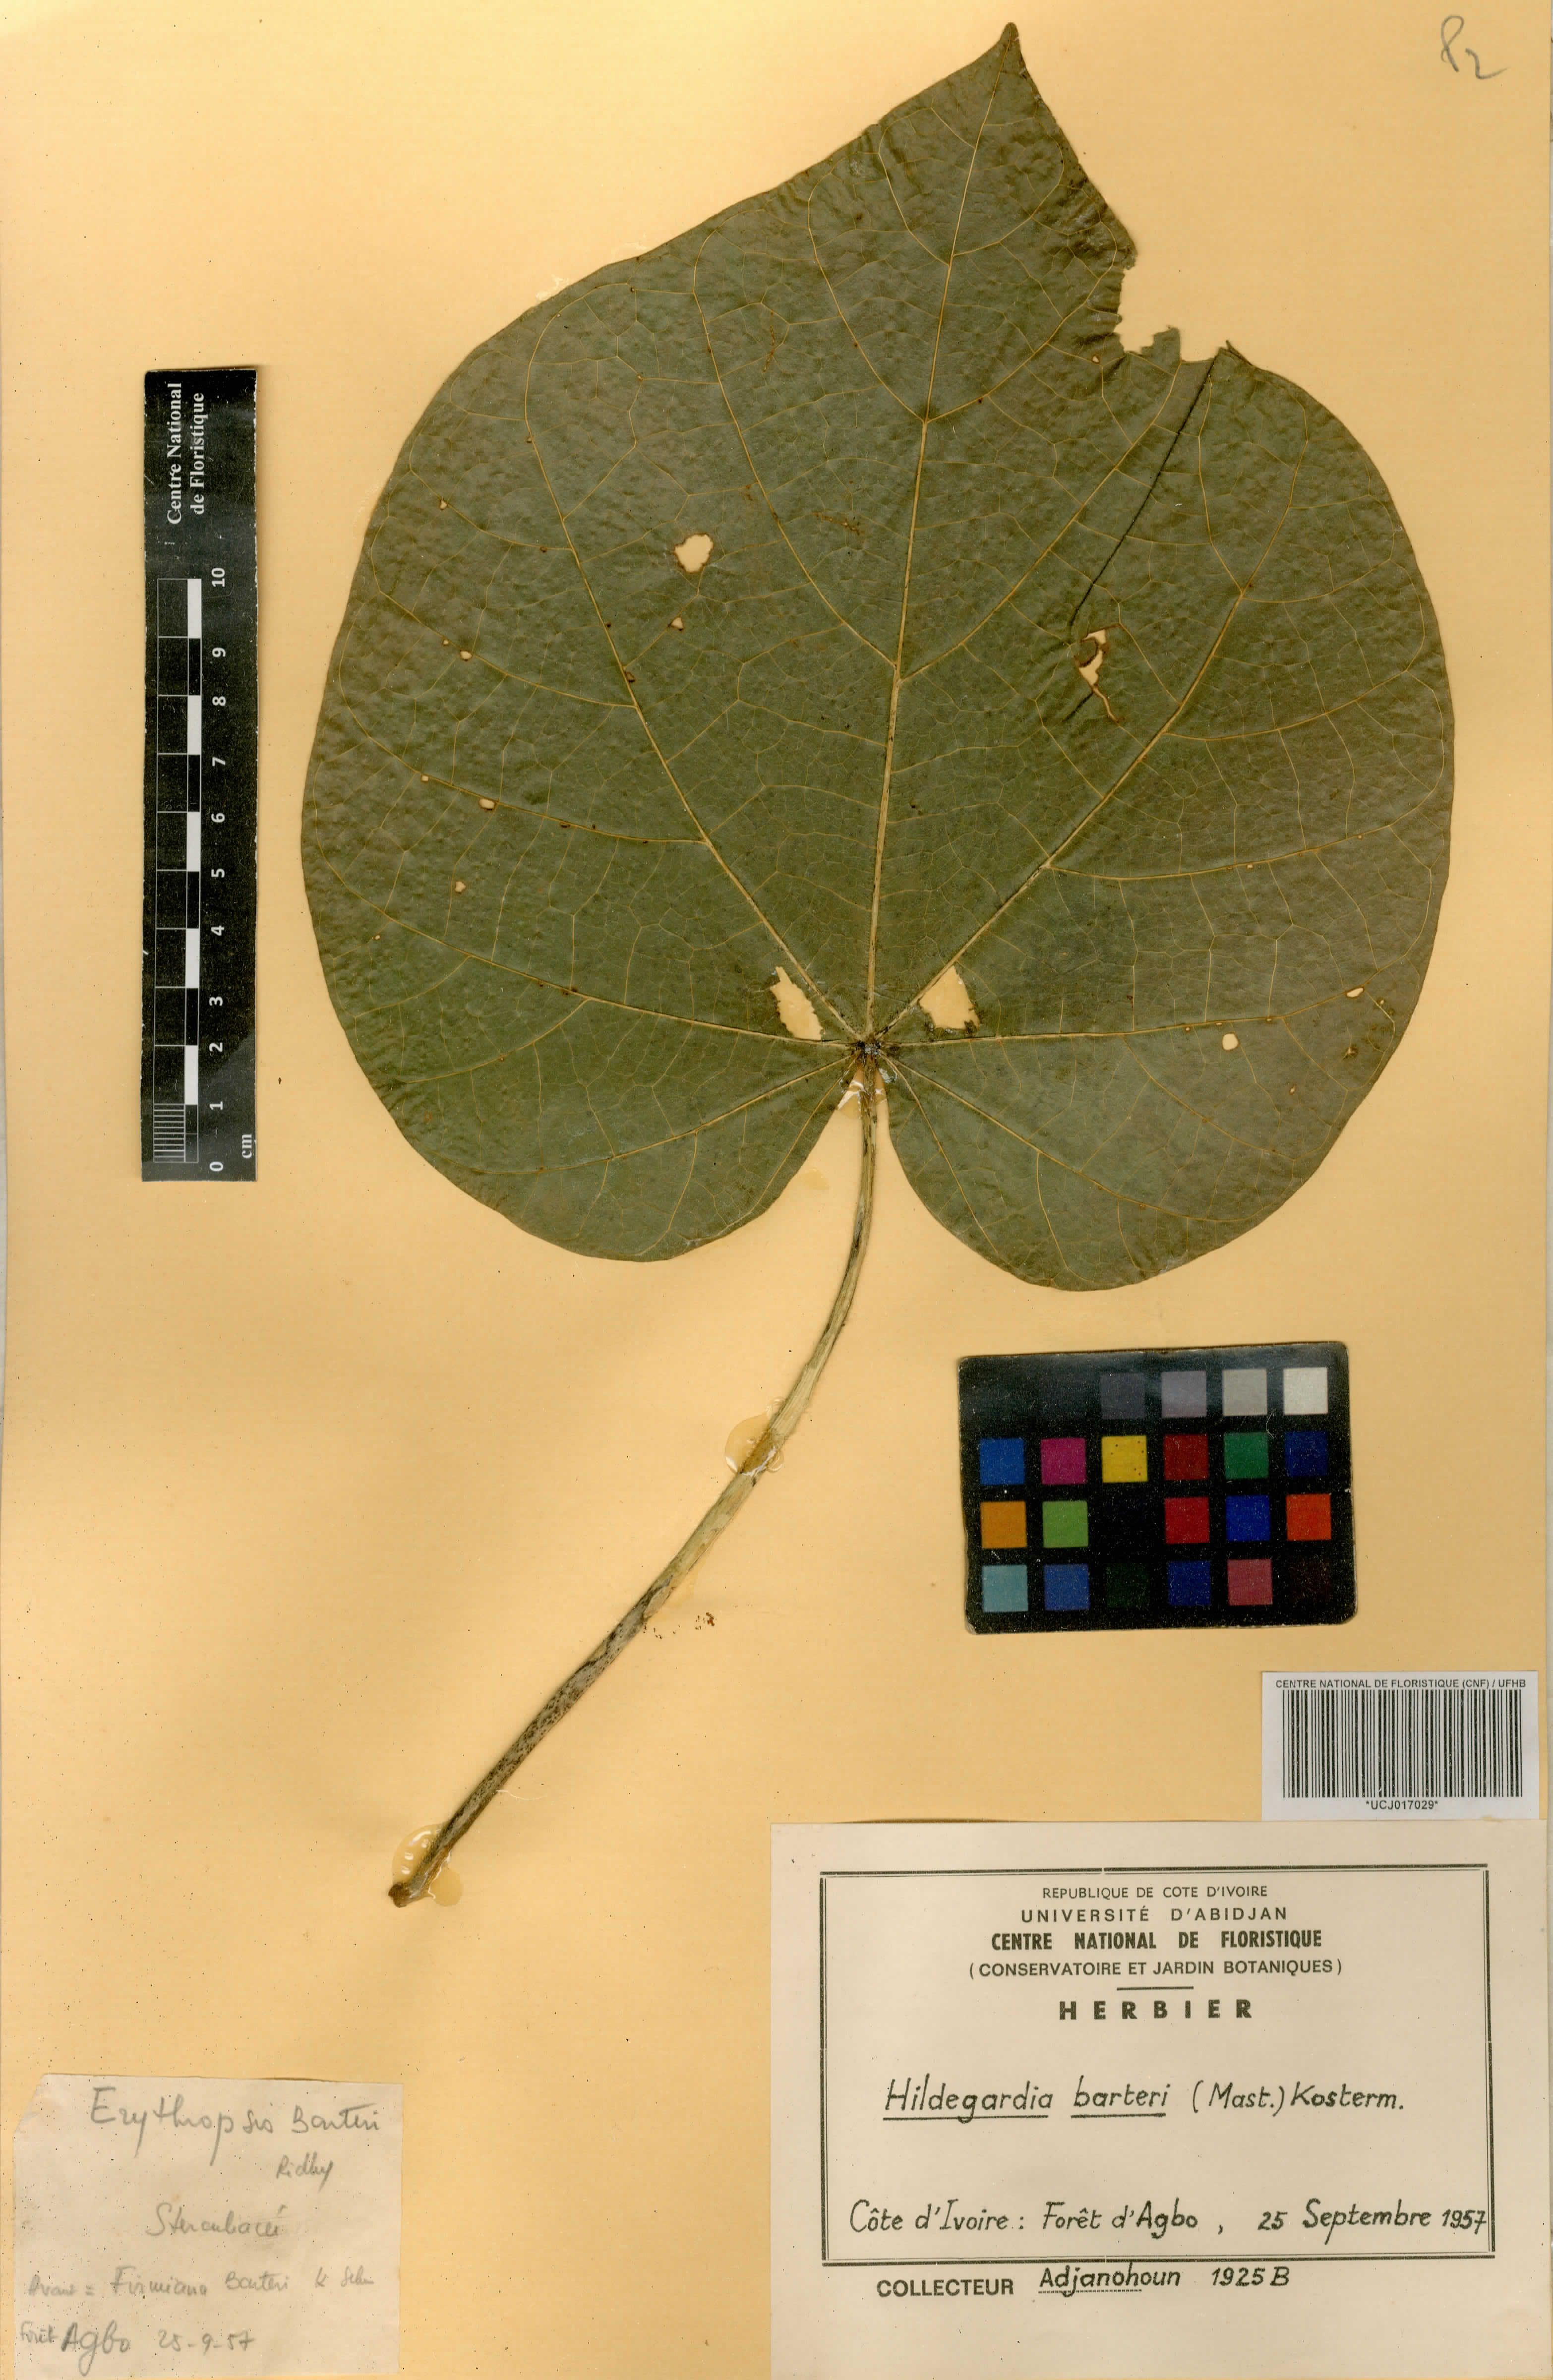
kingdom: Plantae
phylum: Tracheophyta
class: Magnoliopsida
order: Malvales
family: Malvaceae
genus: Hildegardia
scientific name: Hildegardia barteri
